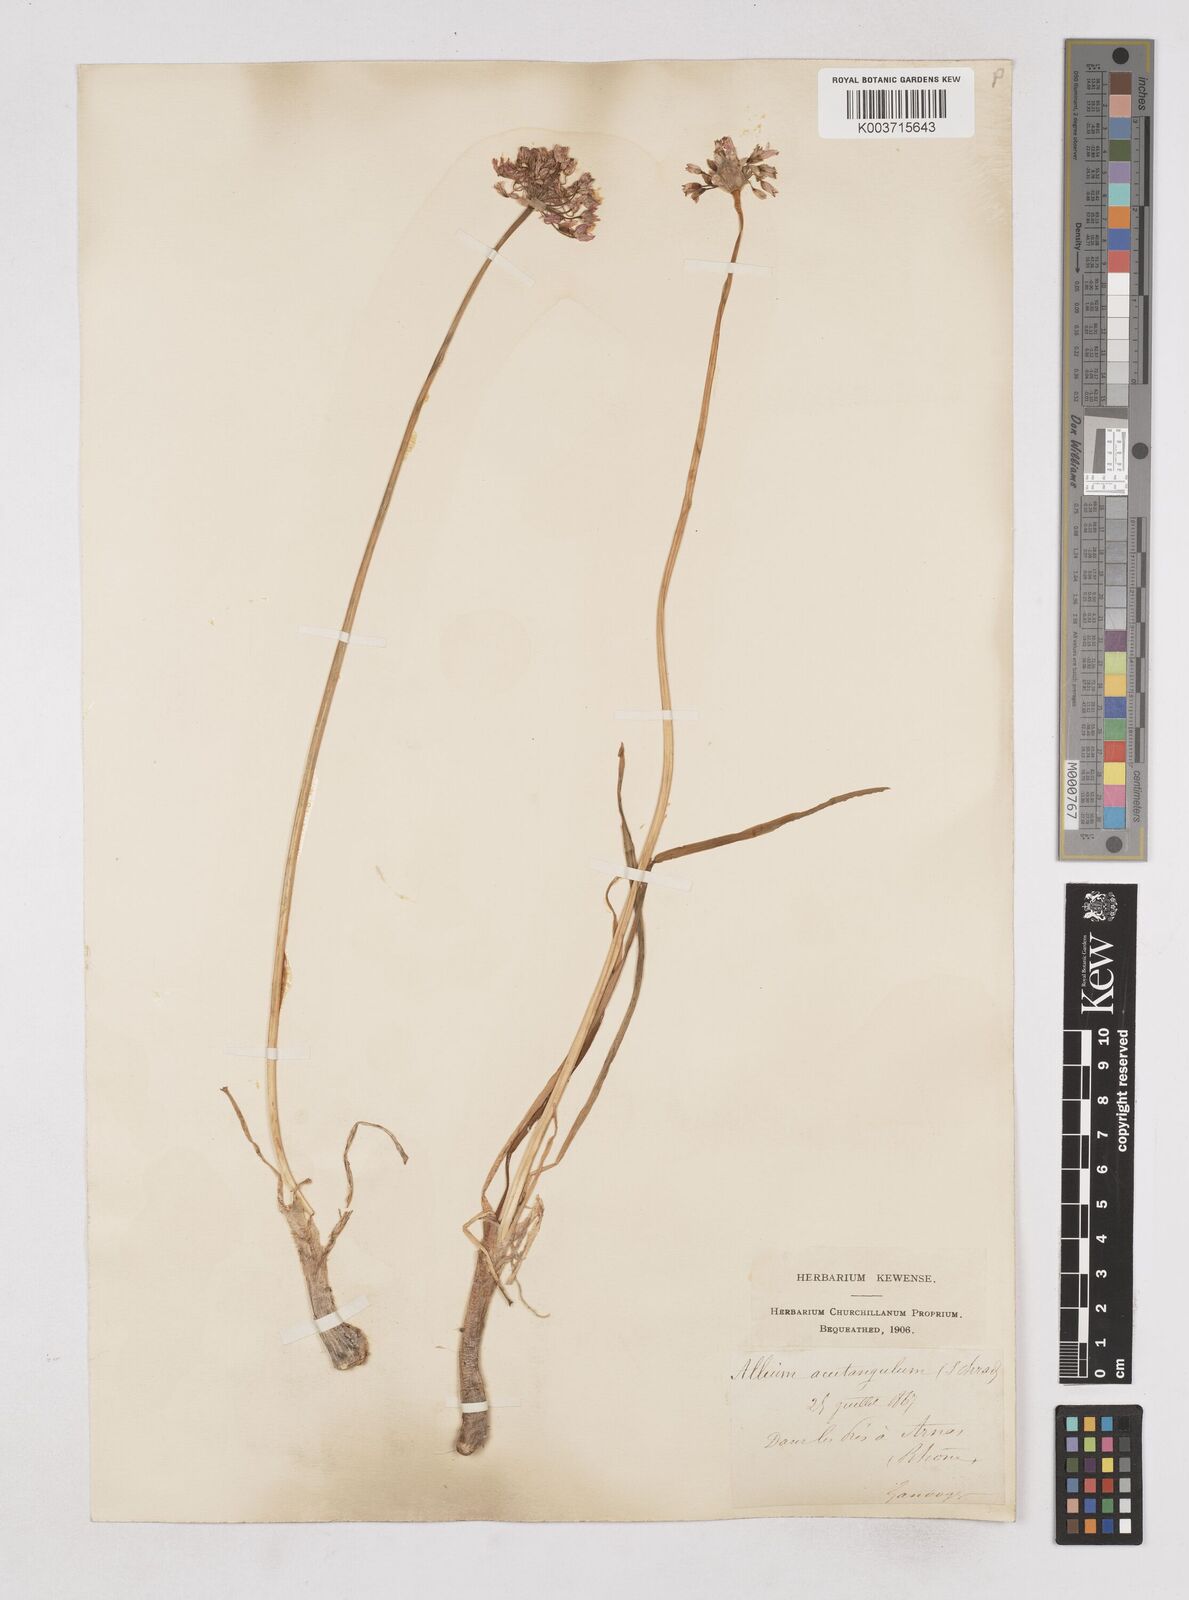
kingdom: Plantae
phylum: Tracheophyta
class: Liliopsida
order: Asparagales
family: Amaryllidaceae
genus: Allium
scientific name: Allium angulosum
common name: Mouse garlic
